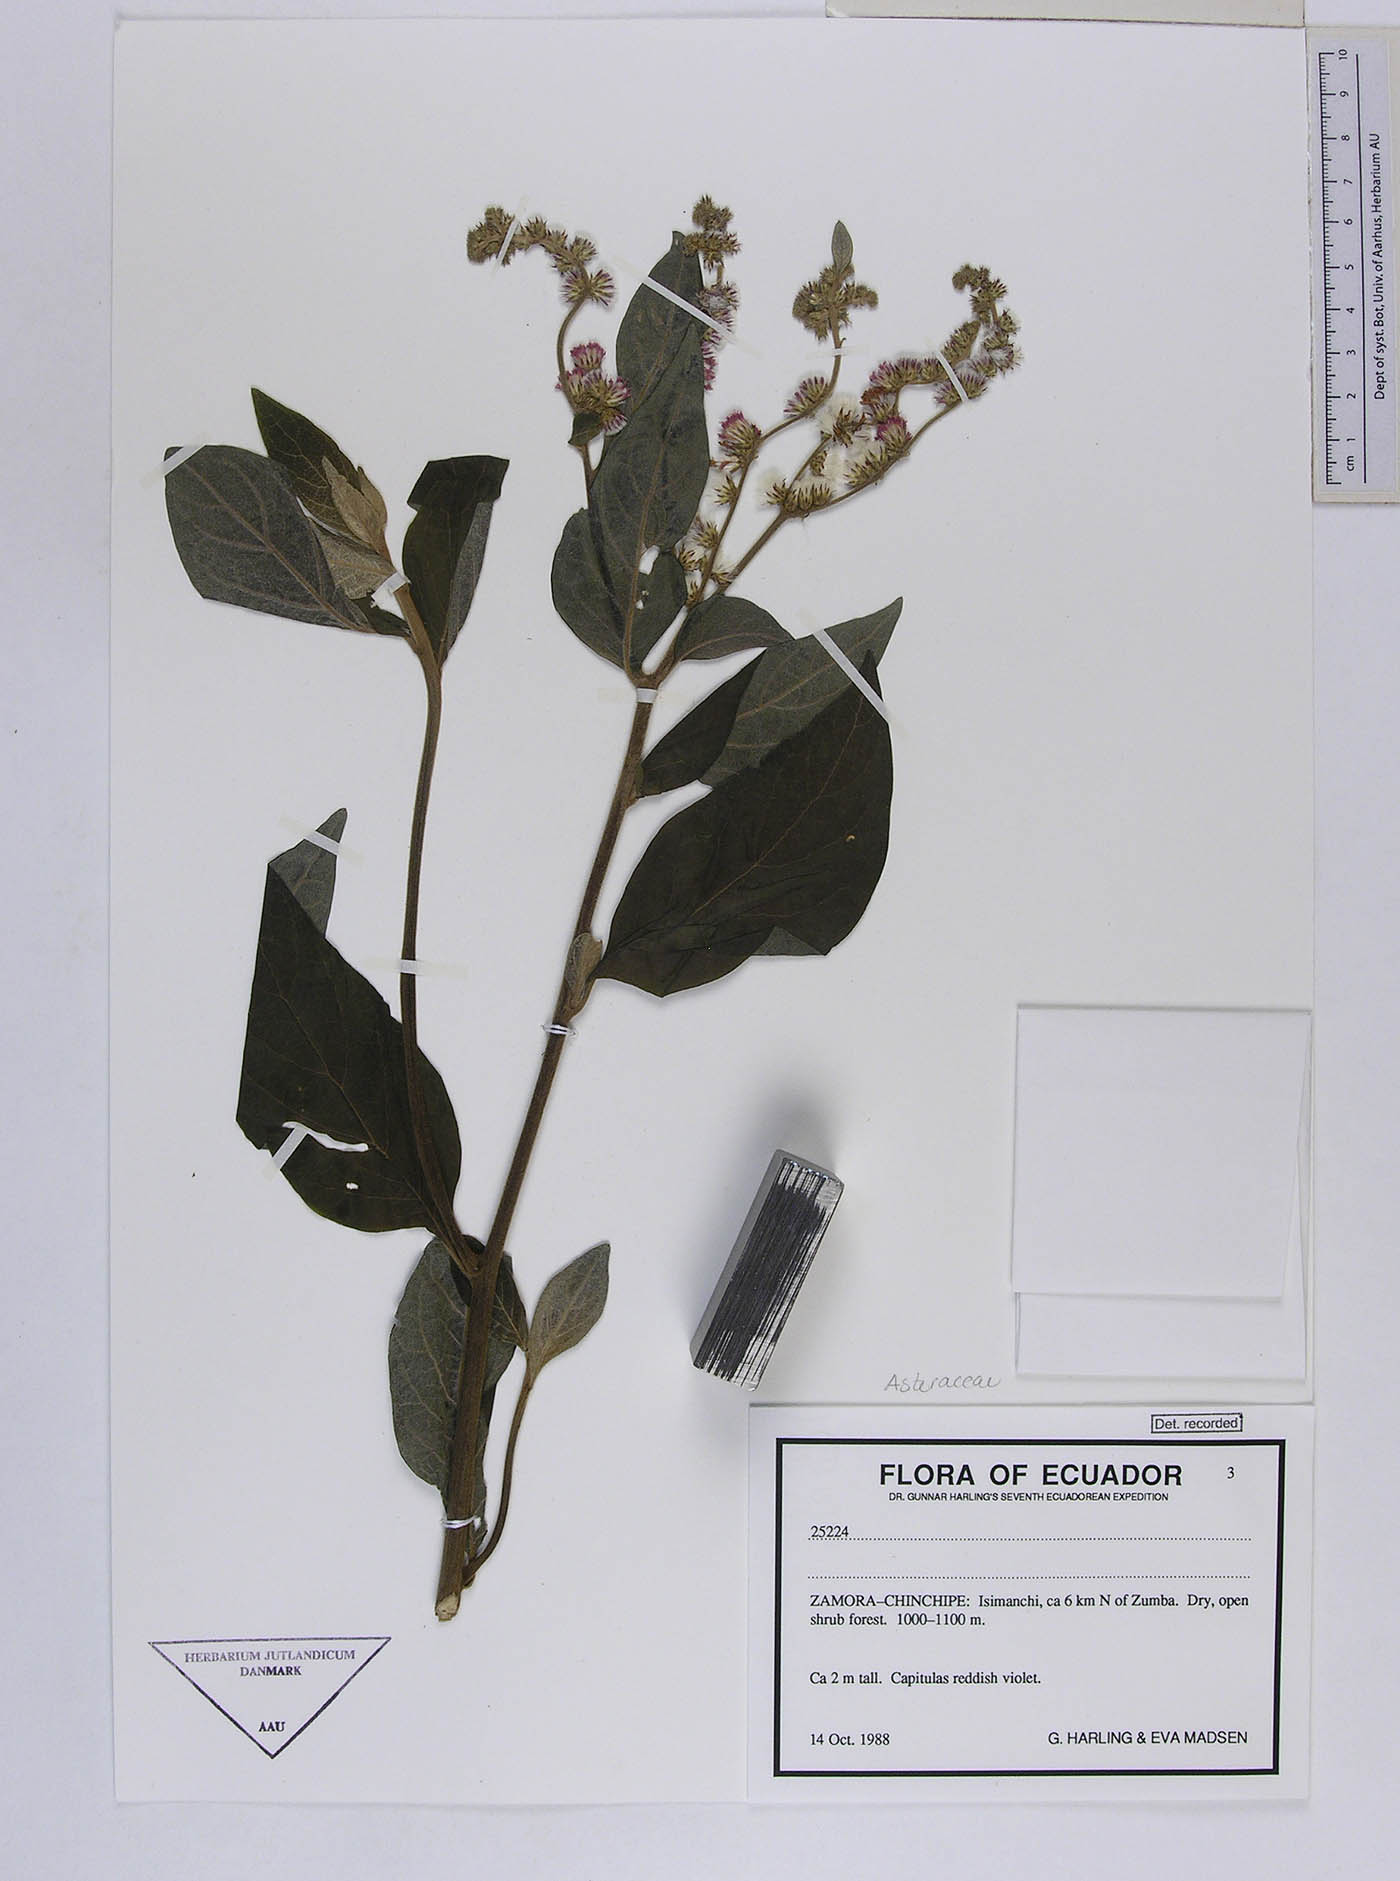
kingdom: Plantae
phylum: Tracheophyta
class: Magnoliopsida
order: Asterales
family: Asteraceae
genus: Cyrtocymura
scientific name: Cyrtocymura scorpioides
